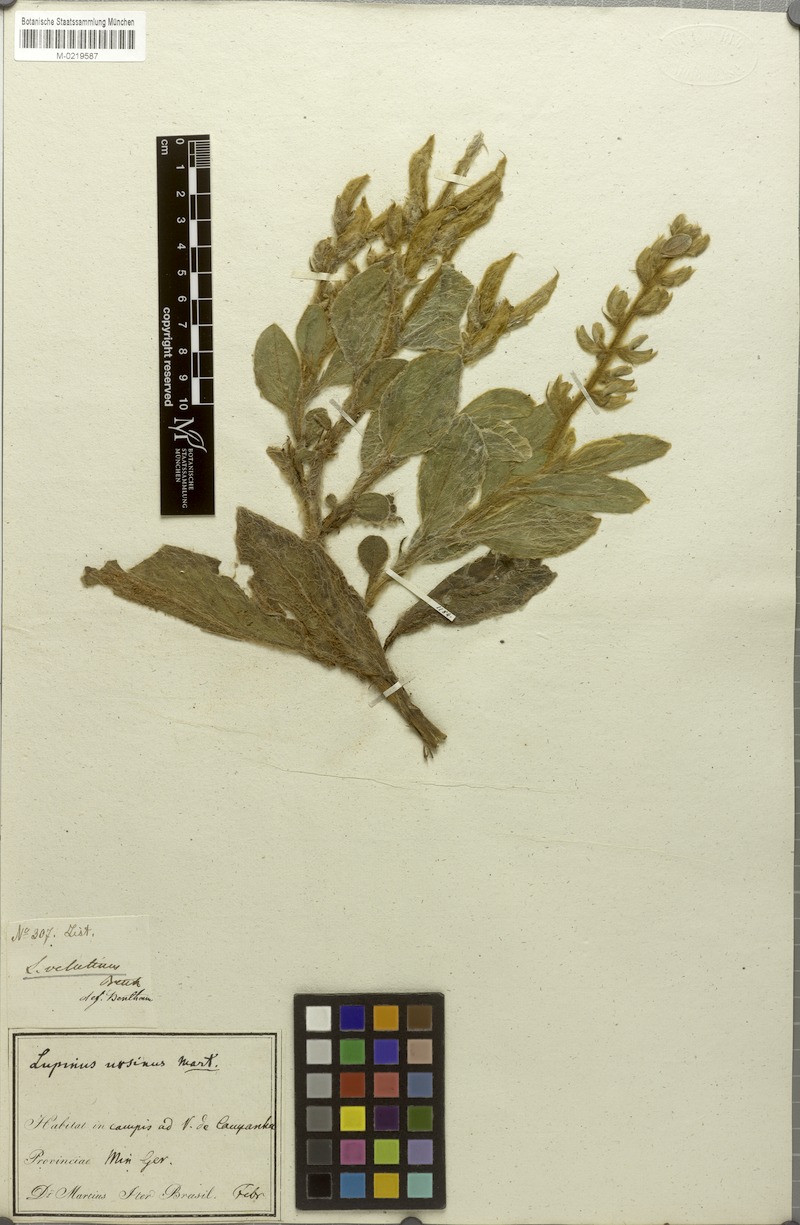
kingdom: Plantae
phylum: Tracheophyta
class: Magnoliopsida
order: Fabales
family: Fabaceae
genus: Lupinus
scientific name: Lupinus velutinus
